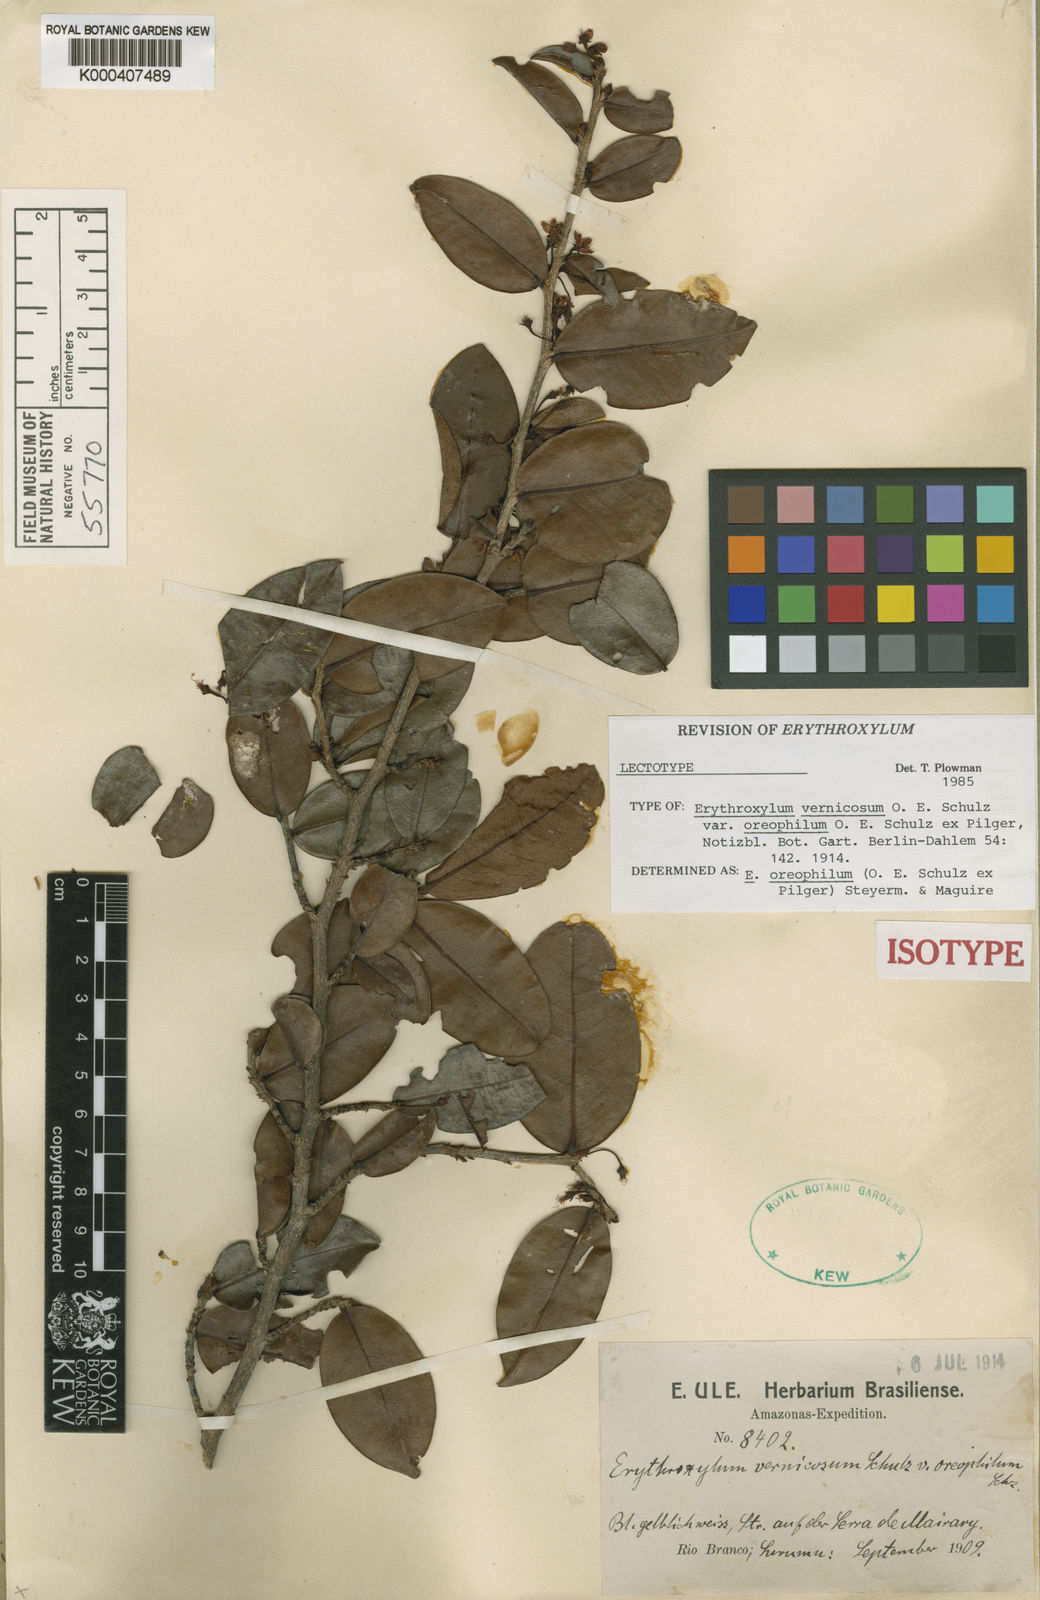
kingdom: Plantae
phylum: Tracheophyta
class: Magnoliopsida
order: Malpighiales
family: Erythroxylaceae
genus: Erythroxylum
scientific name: Erythroxylum vernicosum
